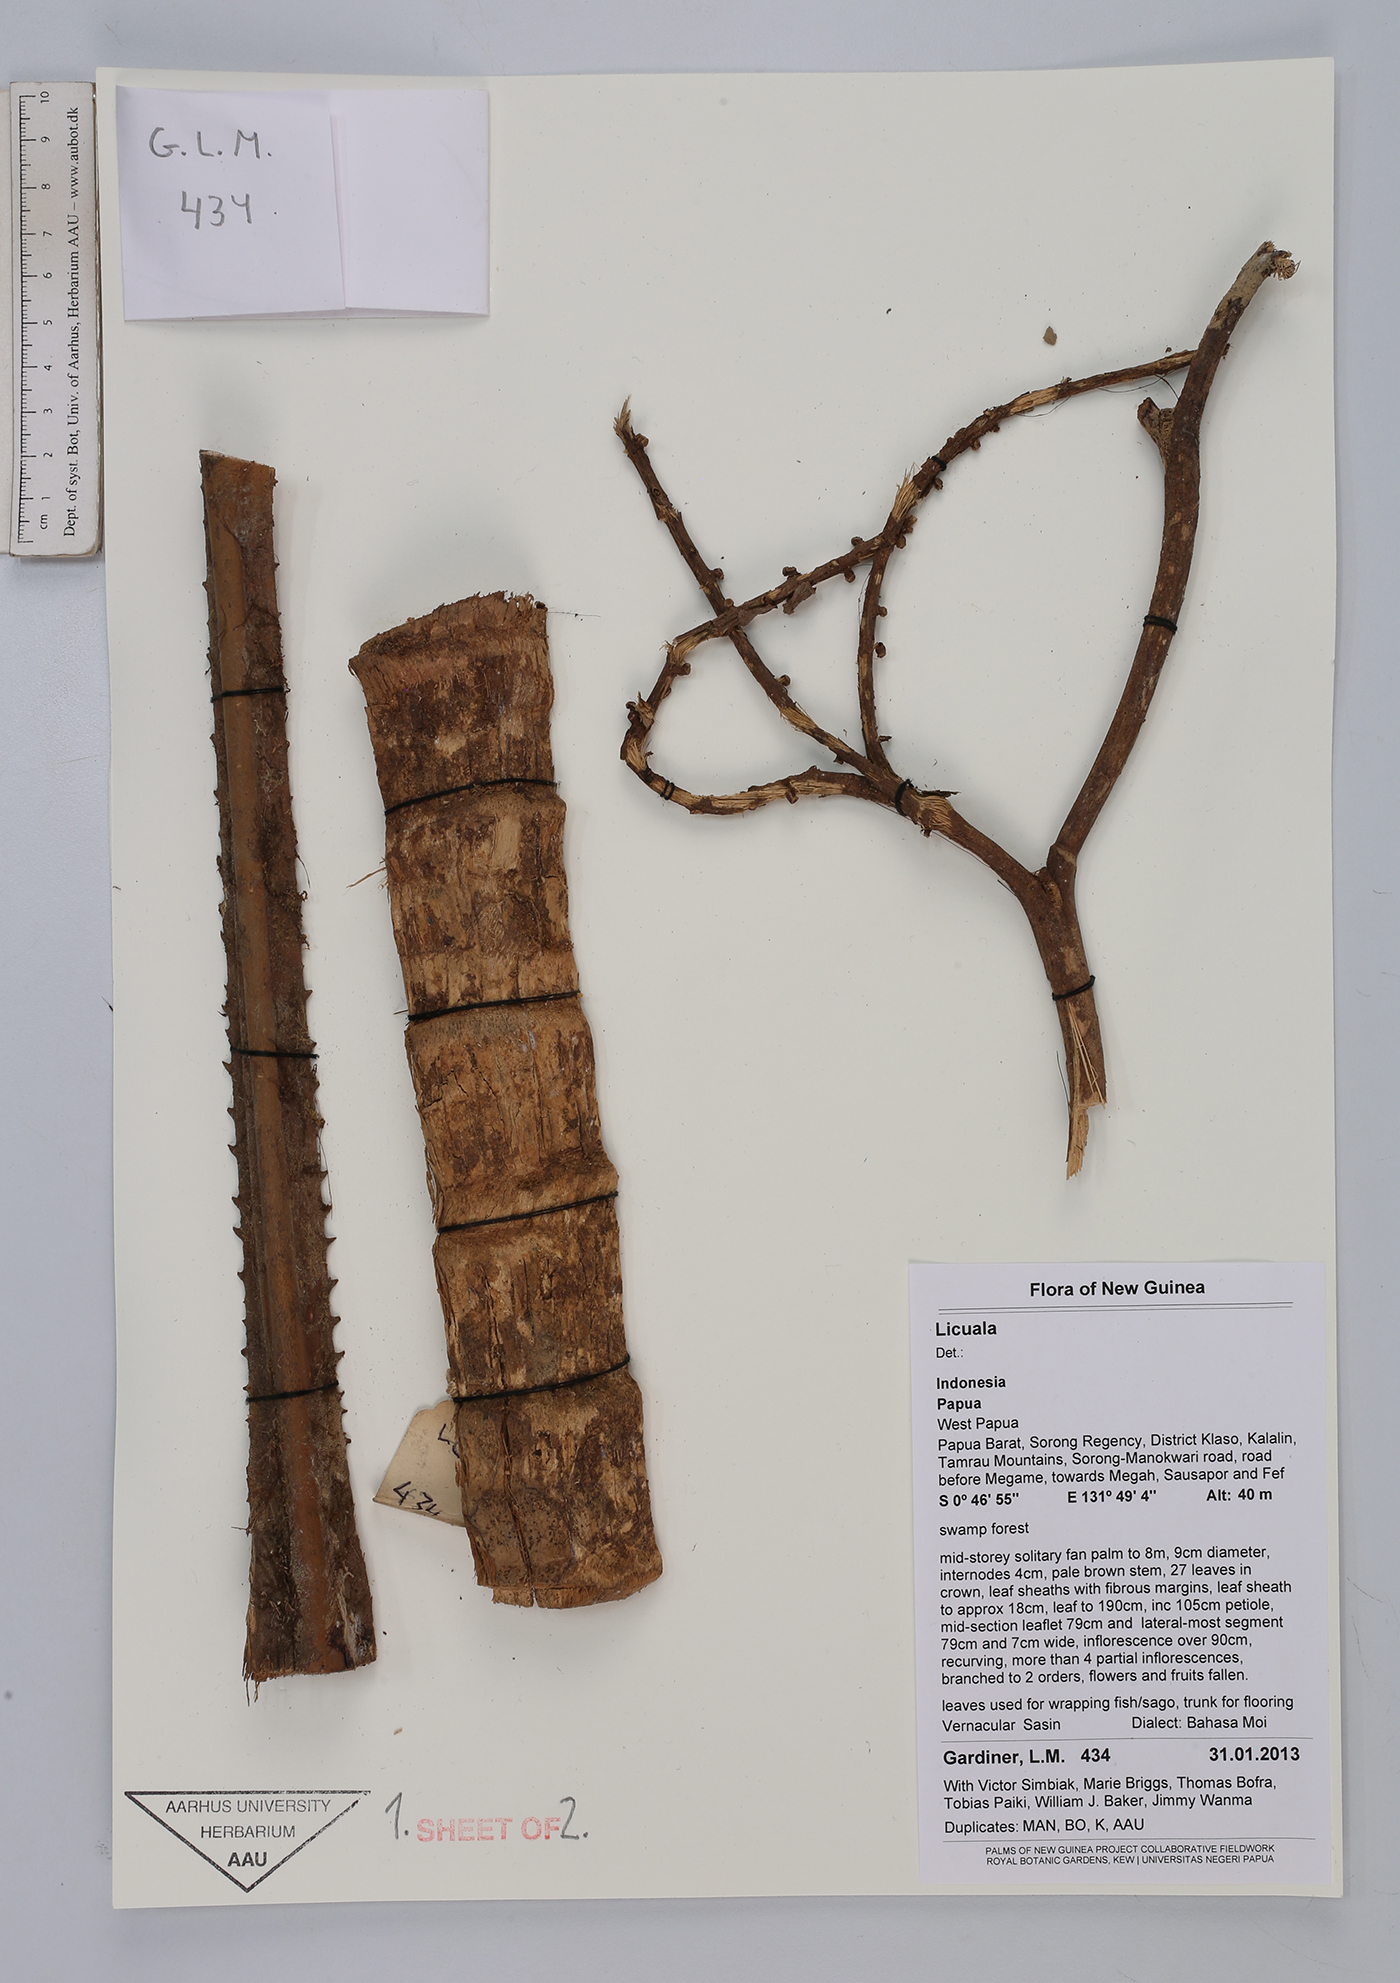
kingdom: Plantae
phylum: Tracheophyta
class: Liliopsida
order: Arecales
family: Arecaceae
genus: Licuala
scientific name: Licuala
